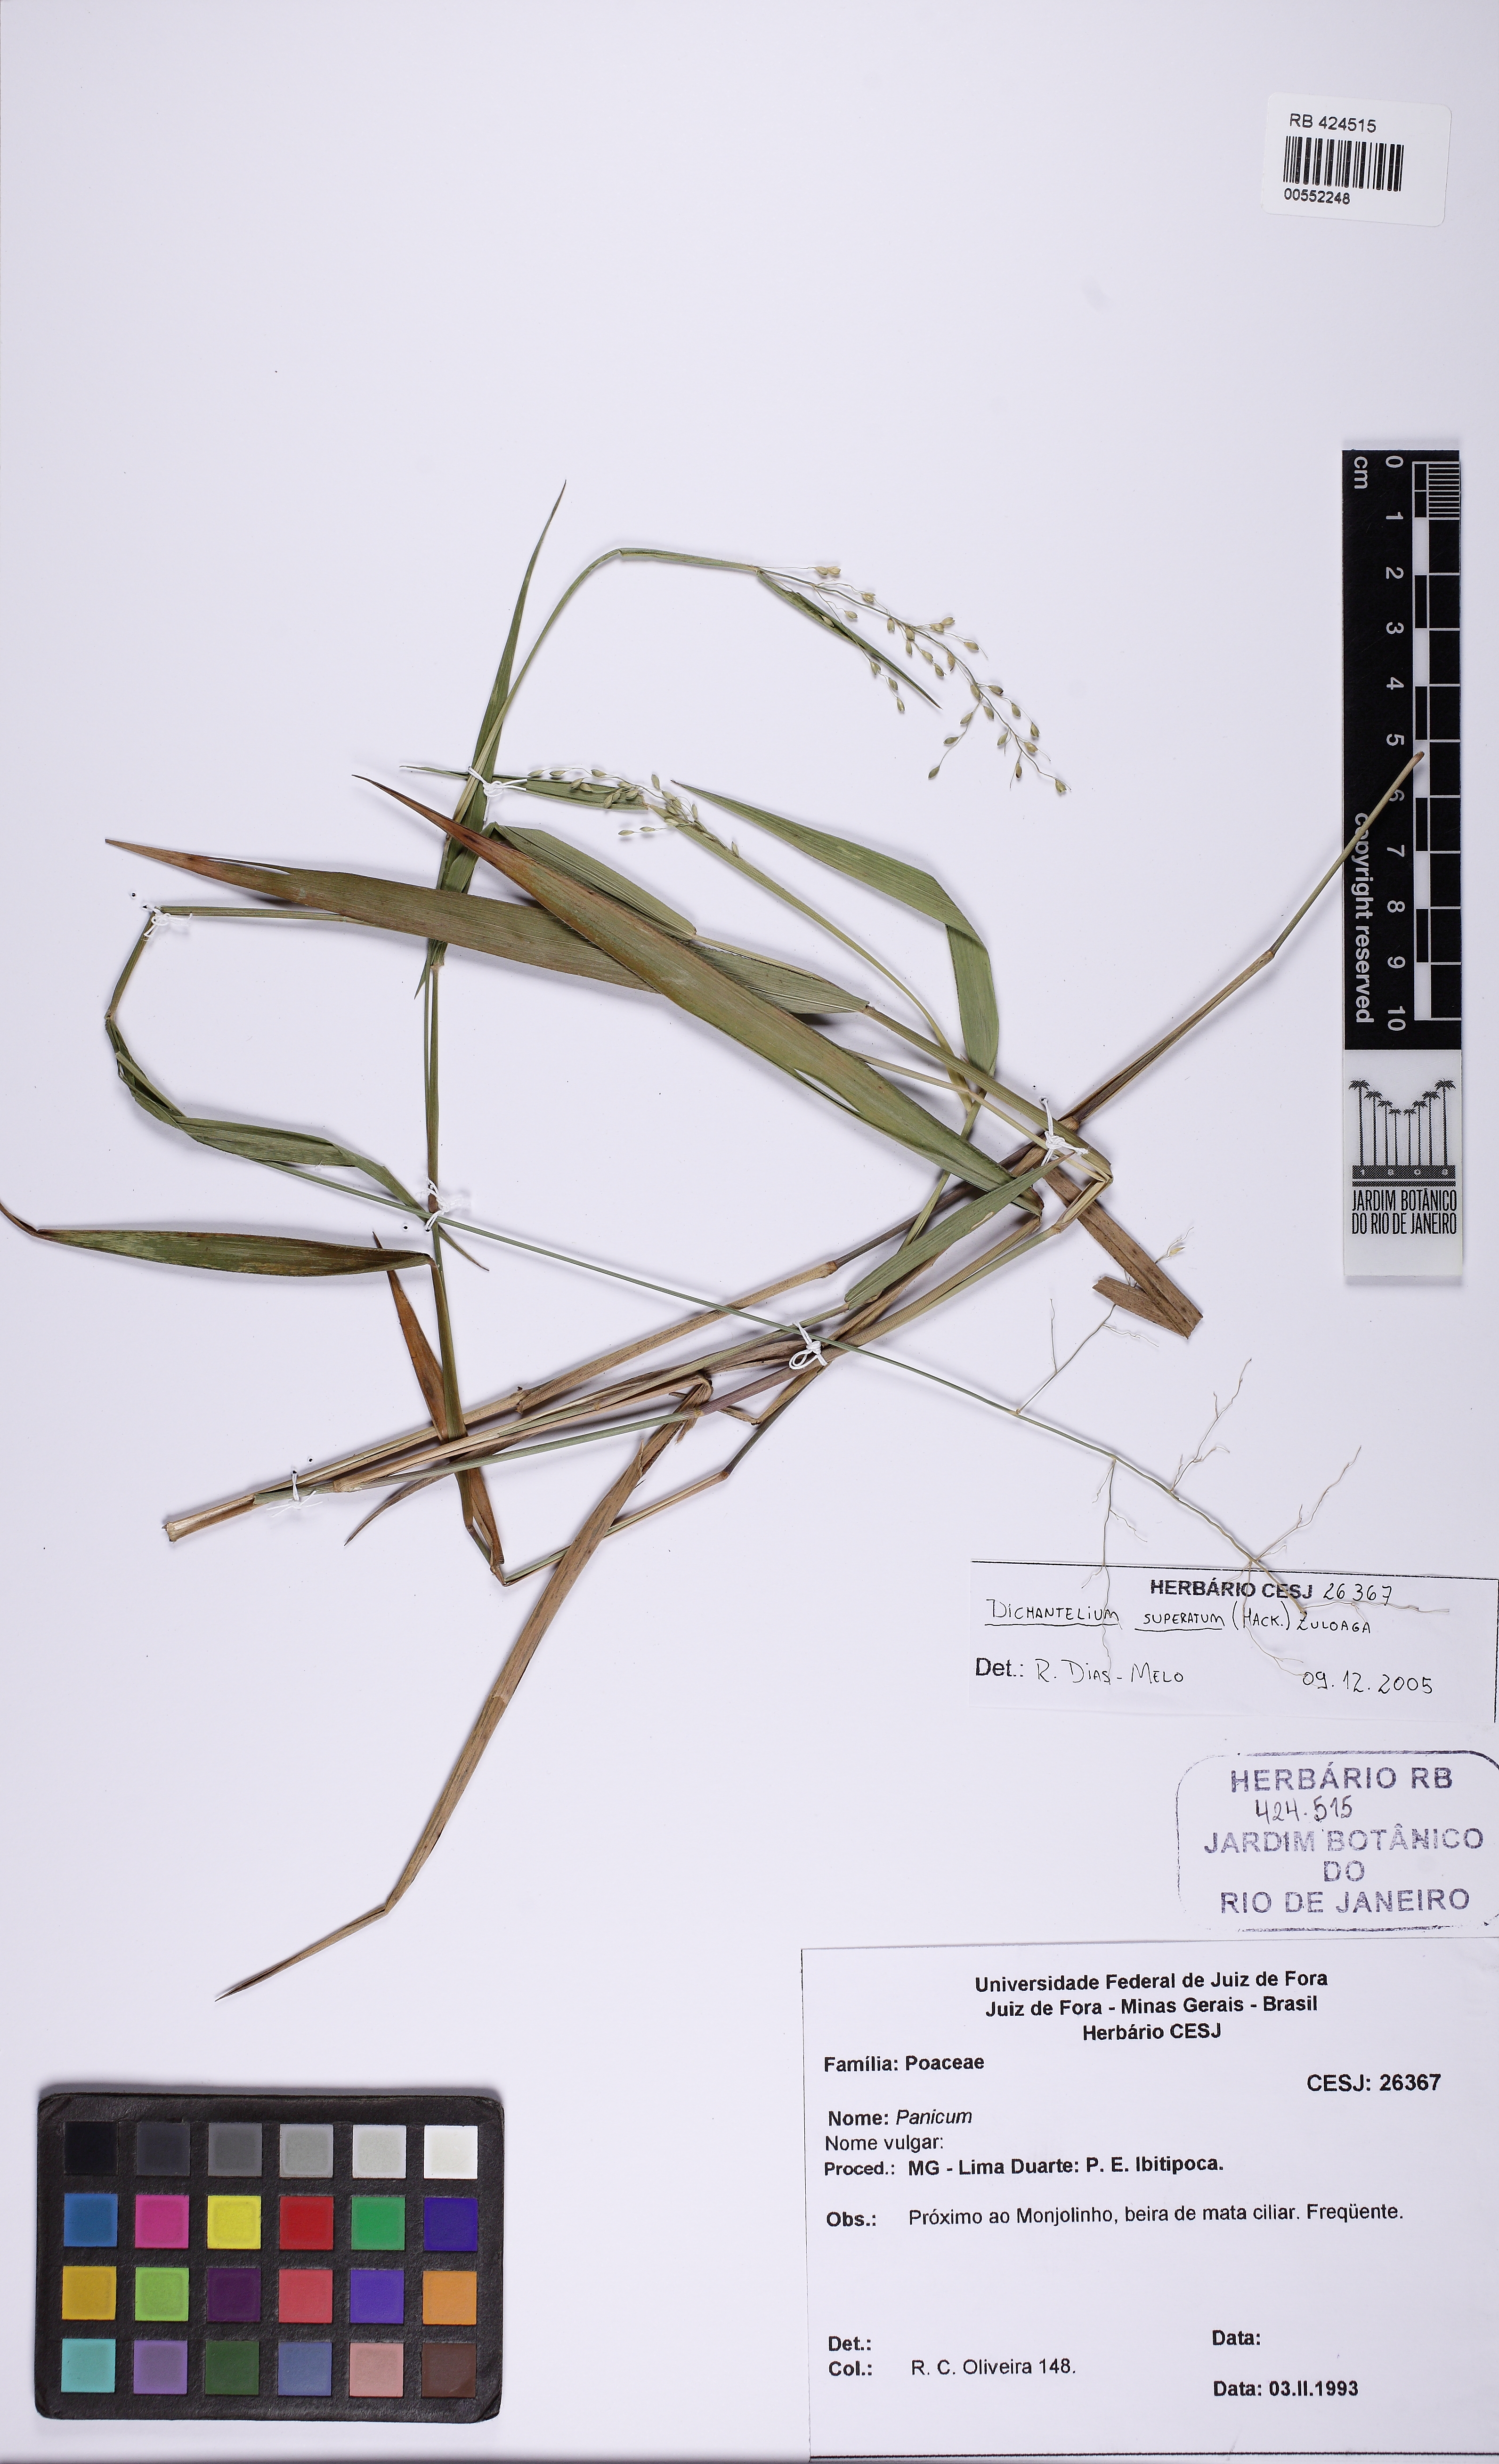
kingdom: Plantae
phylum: Tracheophyta
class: Liliopsida
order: Poales
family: Poaceae
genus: Dichanthelium
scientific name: Dichanthelium superatum
